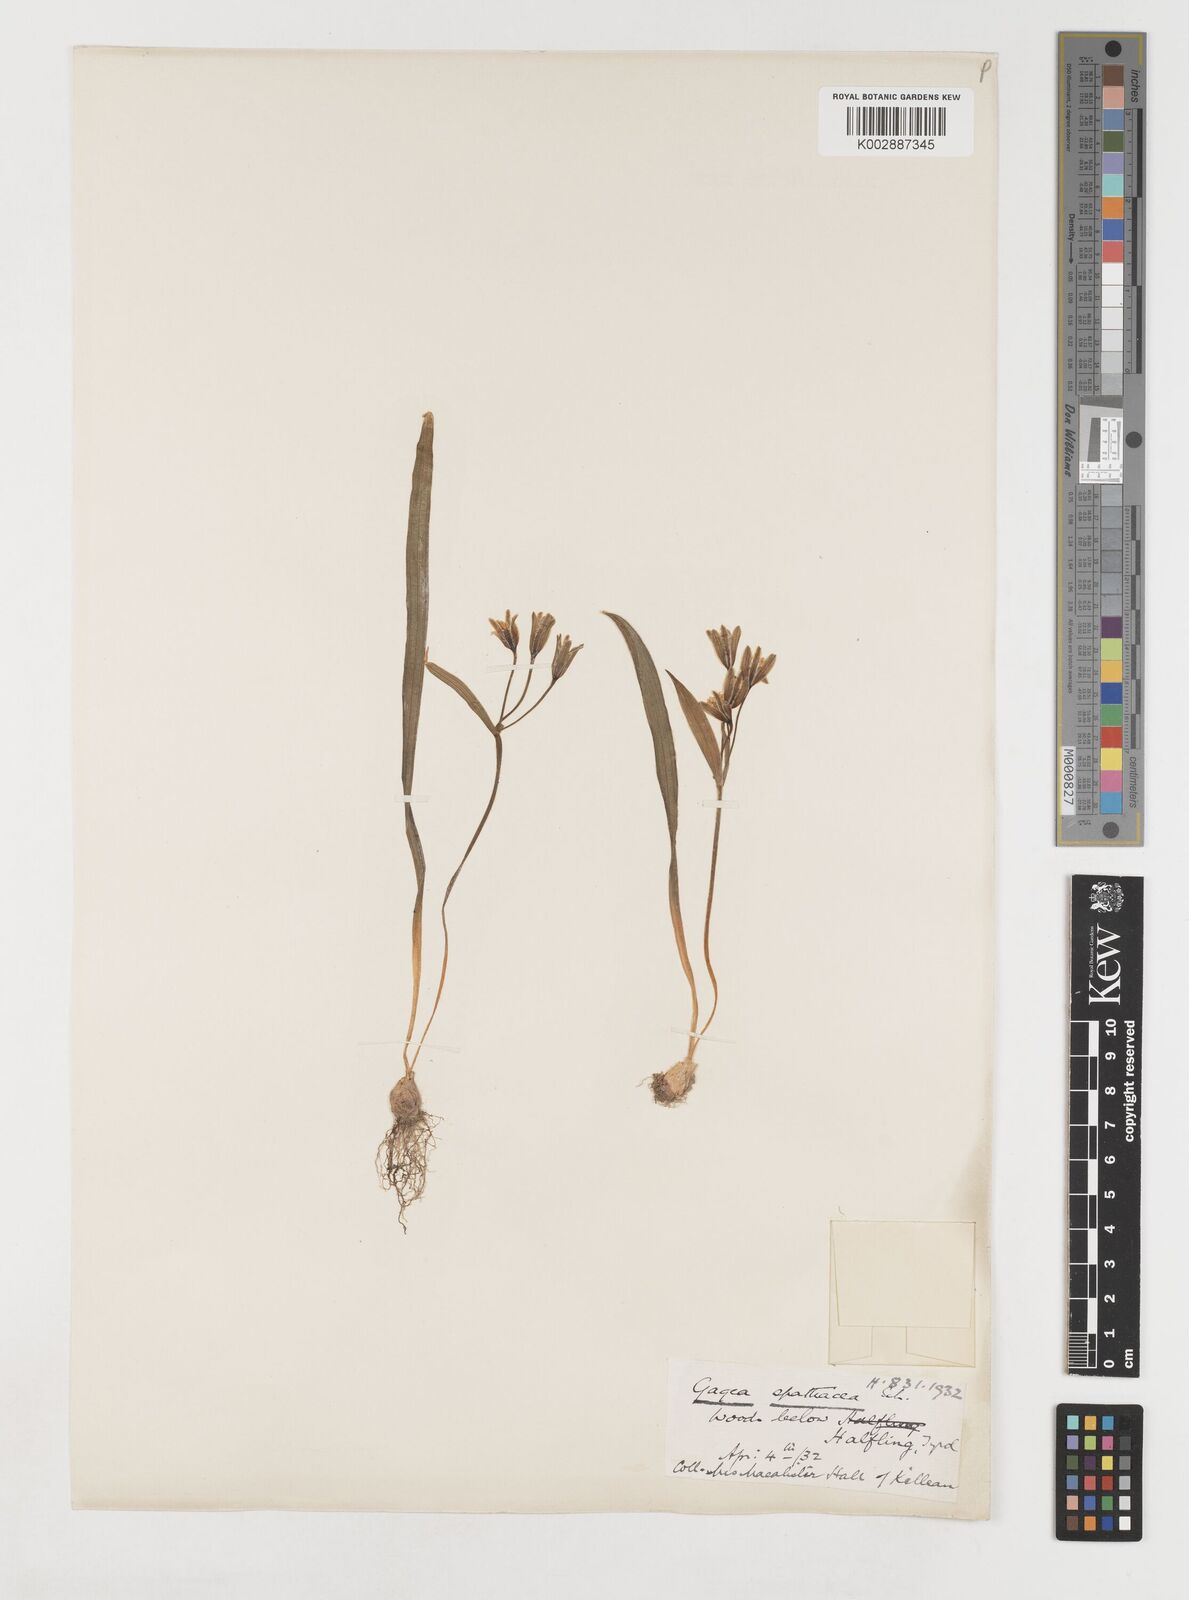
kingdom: Plantae
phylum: Tracheophyta
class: Liliopsida
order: Liliales
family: Liliaceae
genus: Gagea
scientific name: Gagea spathacea
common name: Belgian gagea
